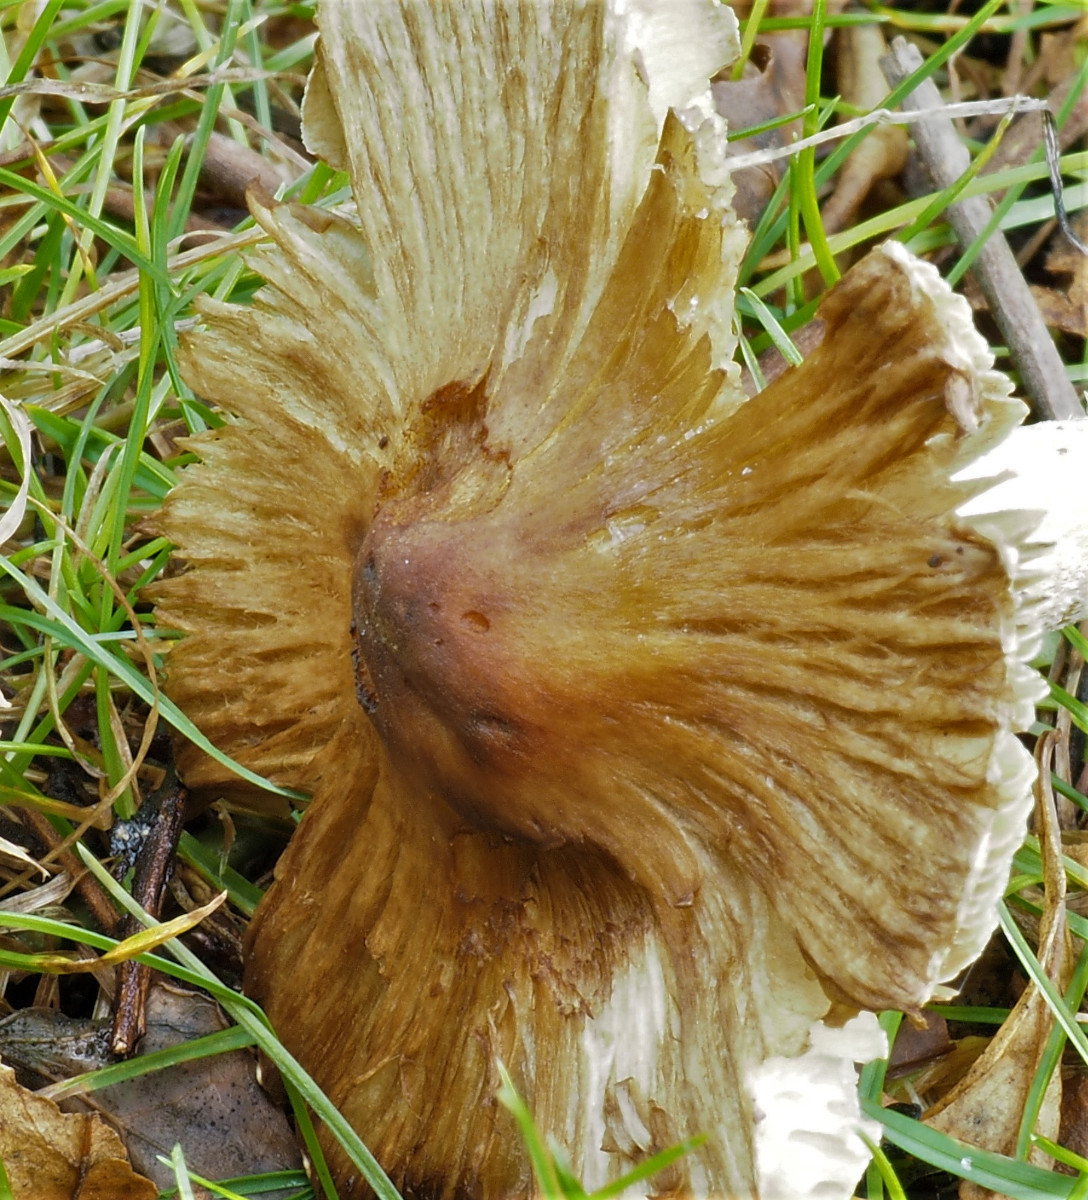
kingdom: Fungi
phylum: Basidiomycota
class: Agaricomycetes
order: Agaricales
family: Inocybaceae
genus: Pseudosperma
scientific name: Pseudosperma
